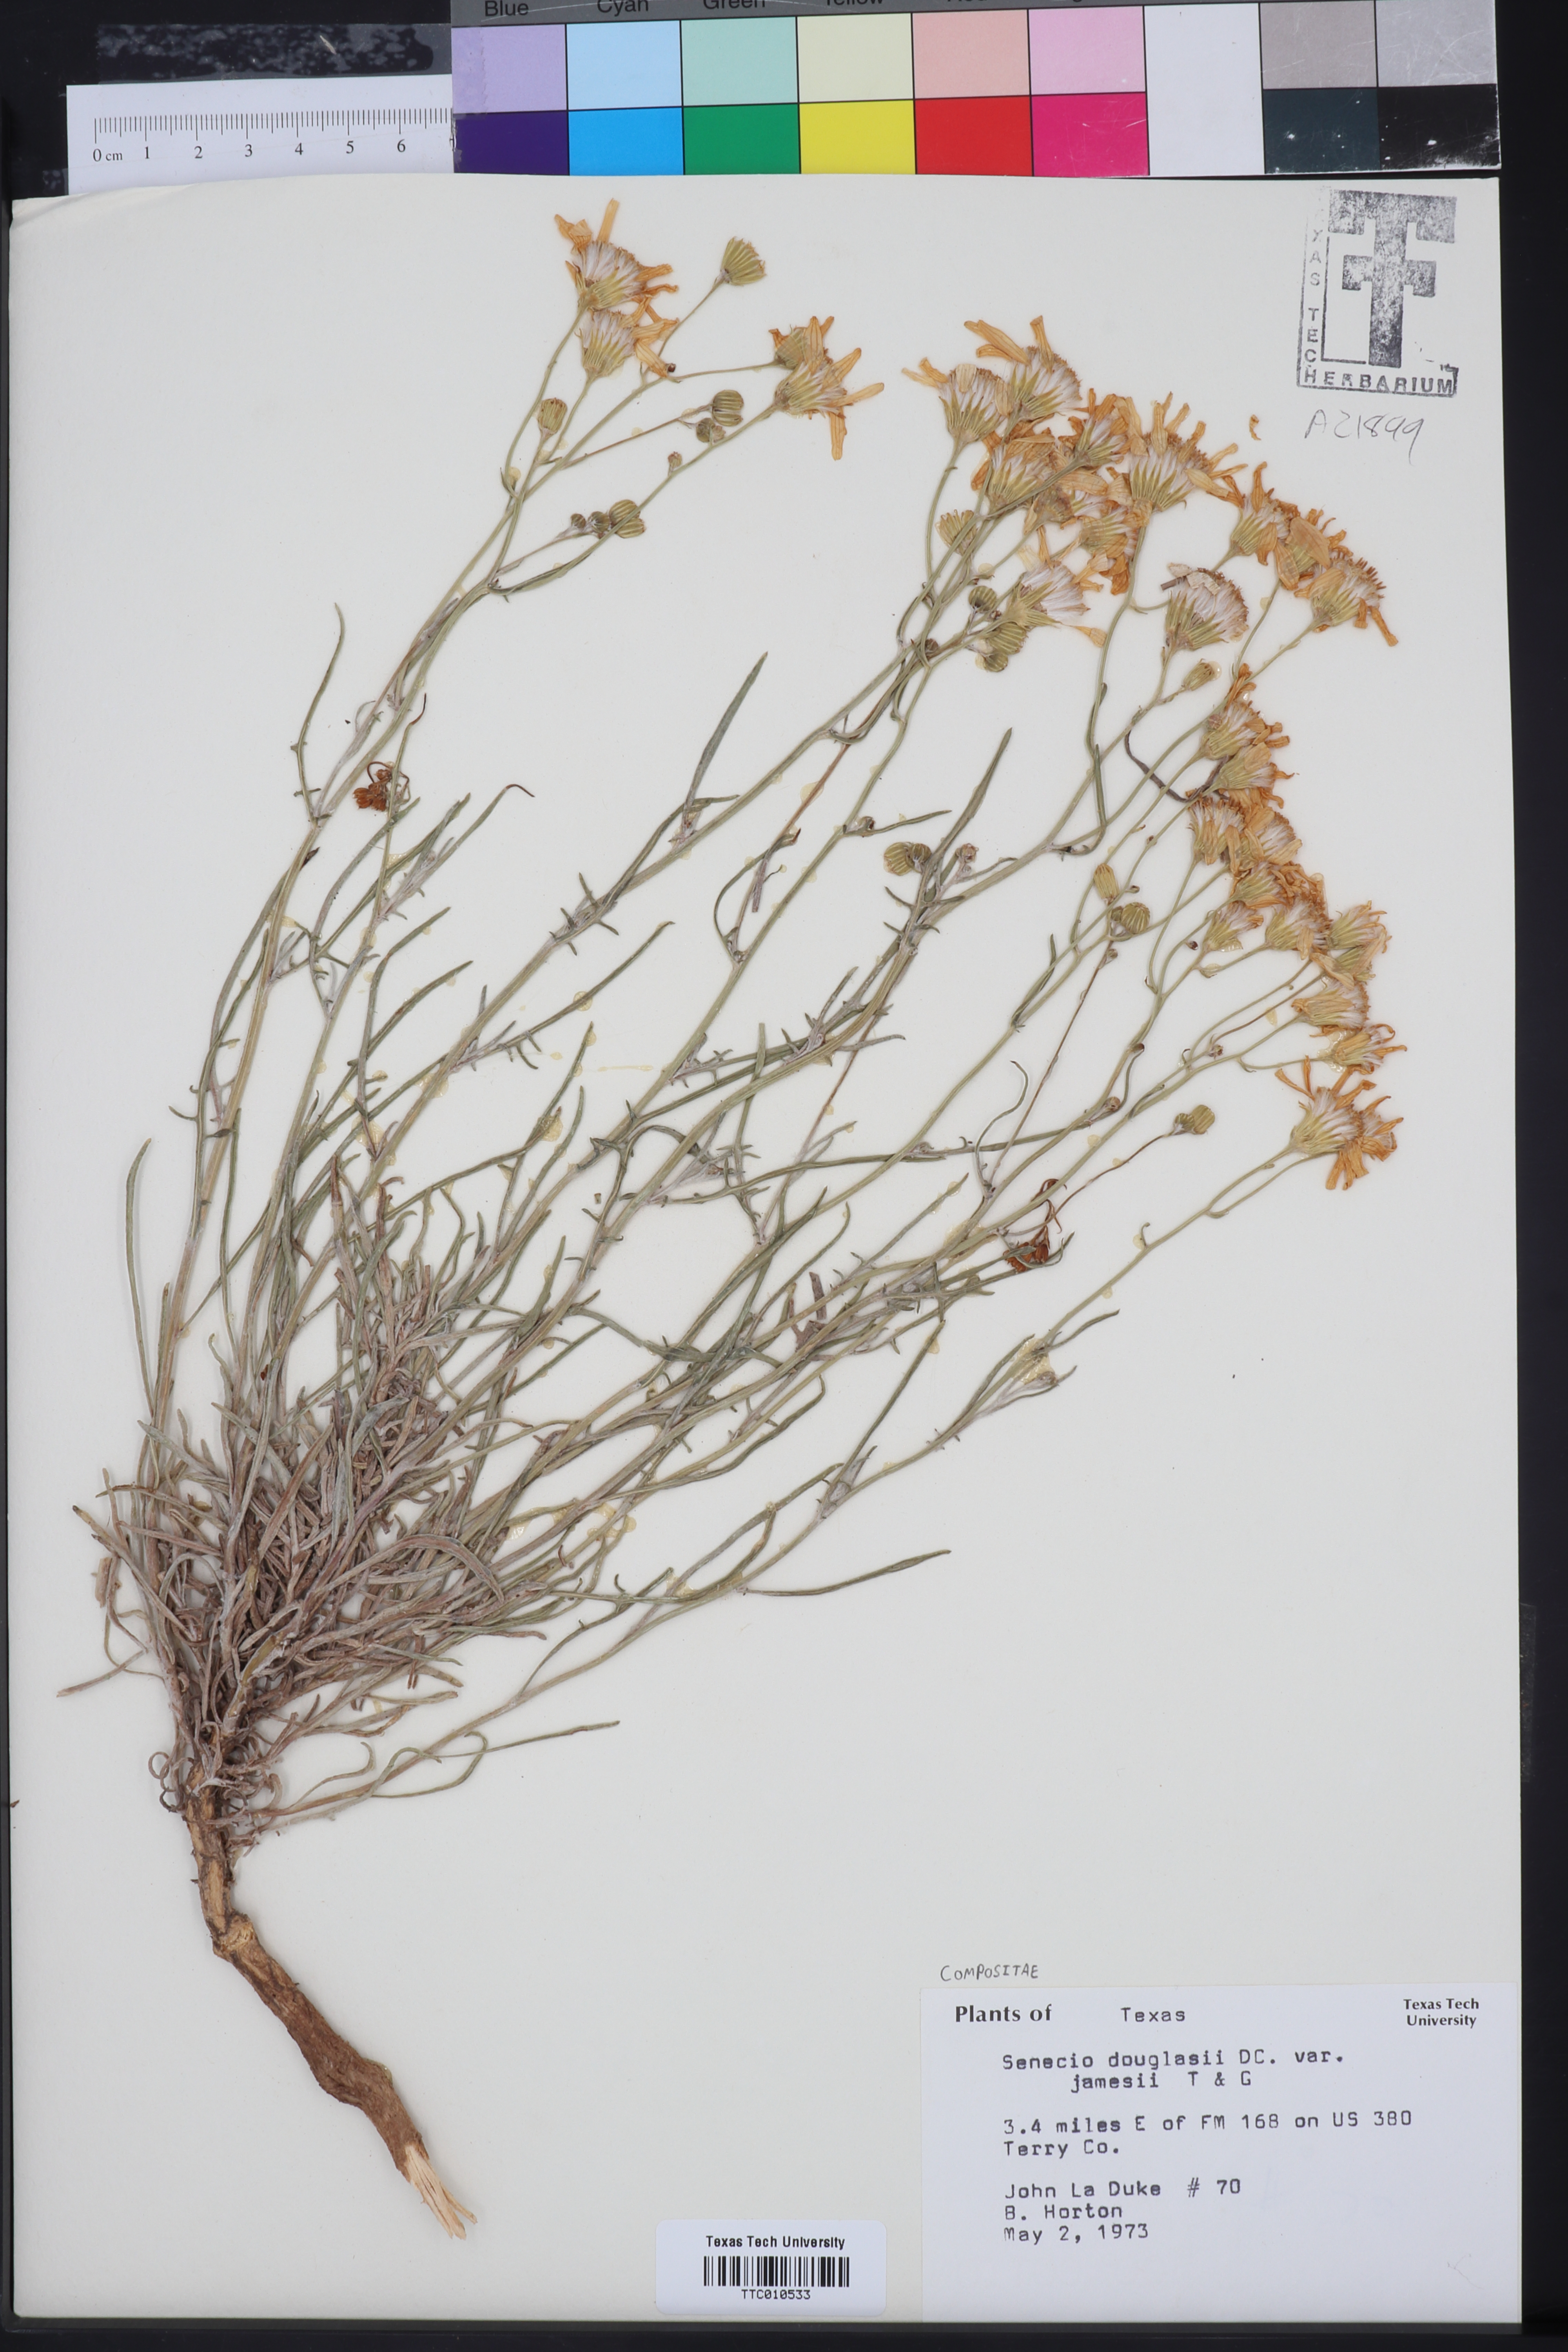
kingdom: Plantae
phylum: Tracheophyta
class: Magnoliopsida
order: Asterales
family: Asteraceae
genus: Senecio
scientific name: Senecio flaccidus
